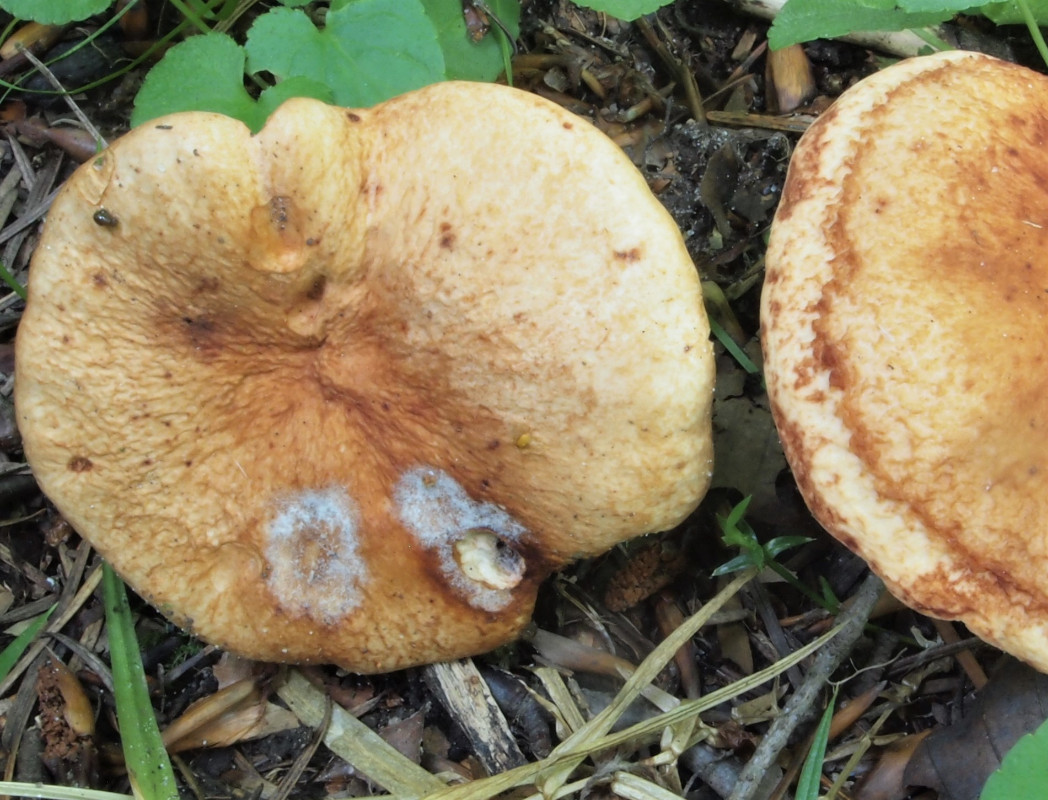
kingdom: Fungi
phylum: Basidiomycota
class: Agaricomycetes
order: Russulales
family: Russulaceae
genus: Lactarius
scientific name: Lactarius rubrocinctus
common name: halsbånd-mælkehat
